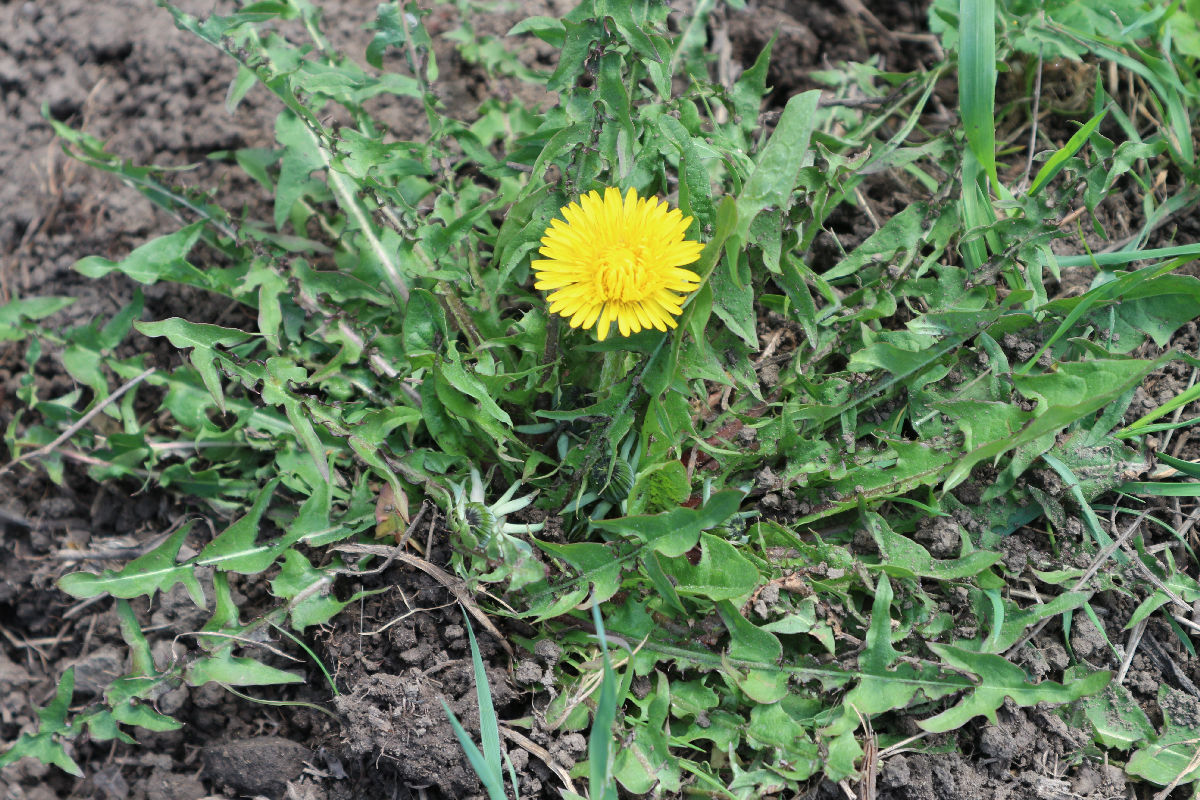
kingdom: Plantae
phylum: Tracheophyta
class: Magnoliopsida
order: Asterales
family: Asteraceae
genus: Taraxacum
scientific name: Taraxacum officinale
